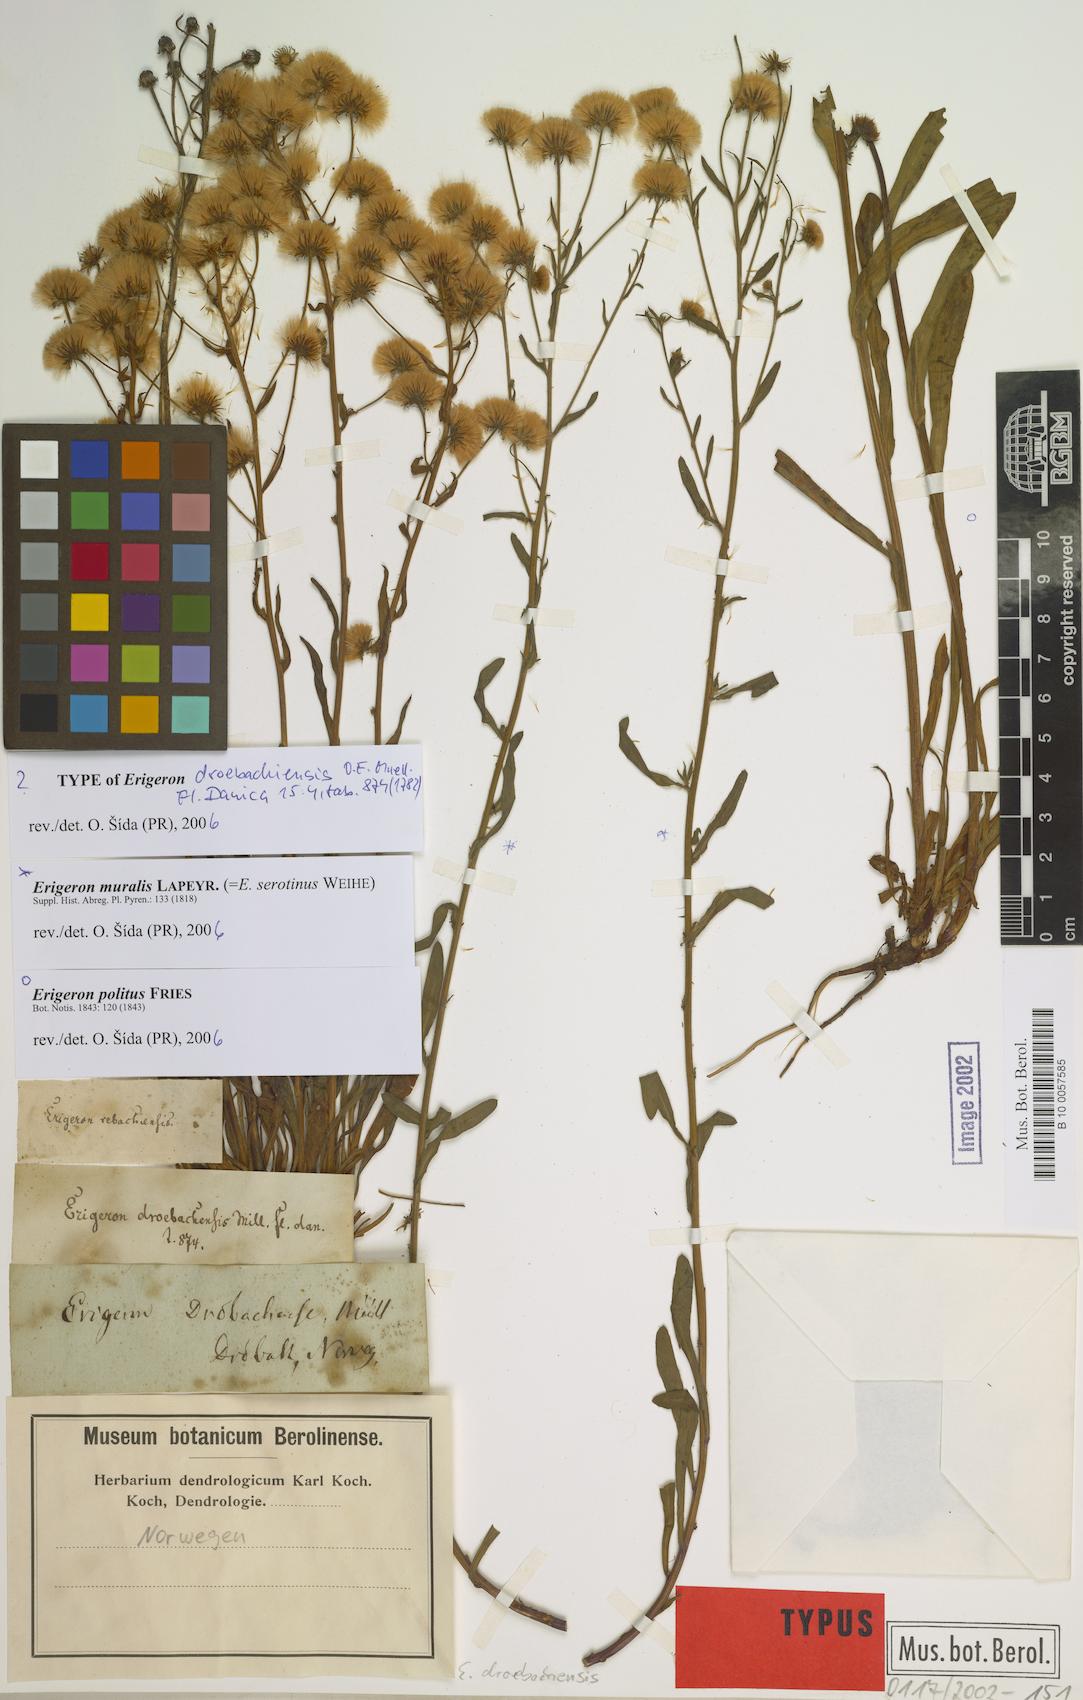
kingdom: Plantae
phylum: Tracheophyta
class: Magnoliopsida
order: Asterales
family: Asteraceae
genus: Erigeron
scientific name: Erigeron acris
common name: Blue fleabane
